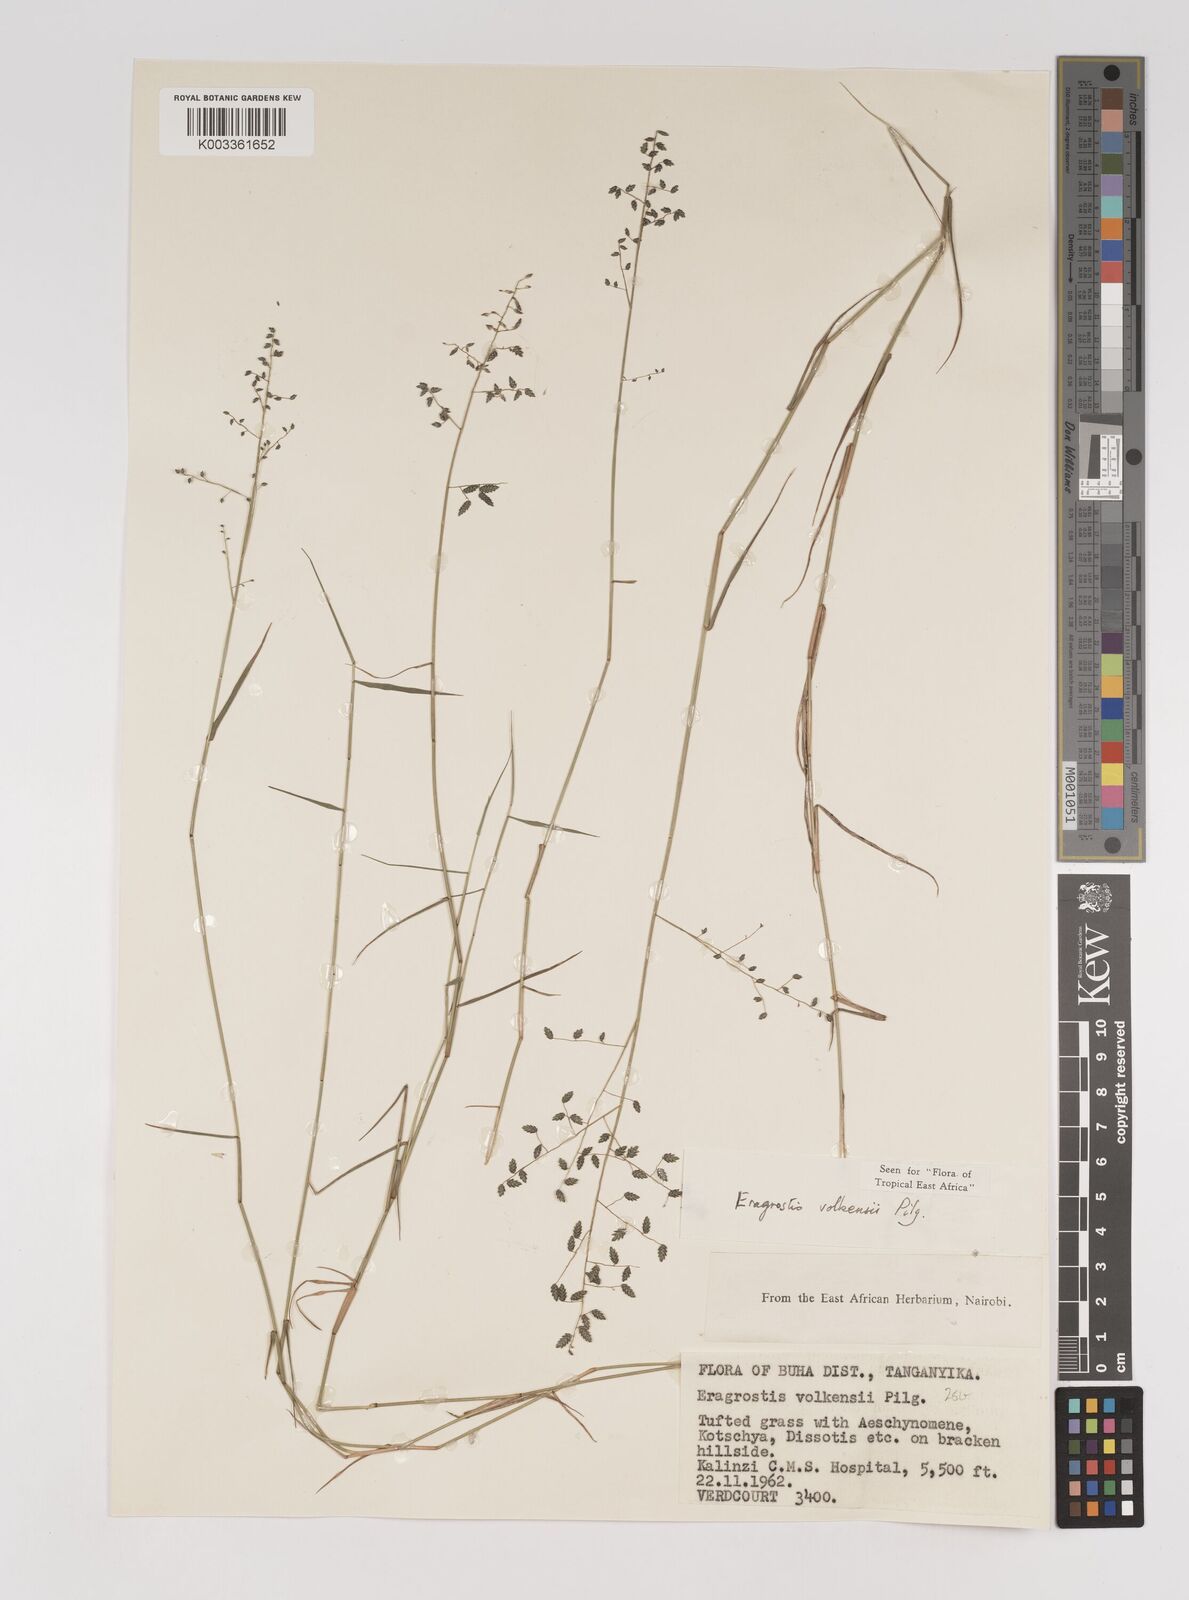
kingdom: Plantae
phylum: Tracheophyta
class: Liliopsida
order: Poales
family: Poaceae
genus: Eragrostis
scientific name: Eragrostis volkensii
